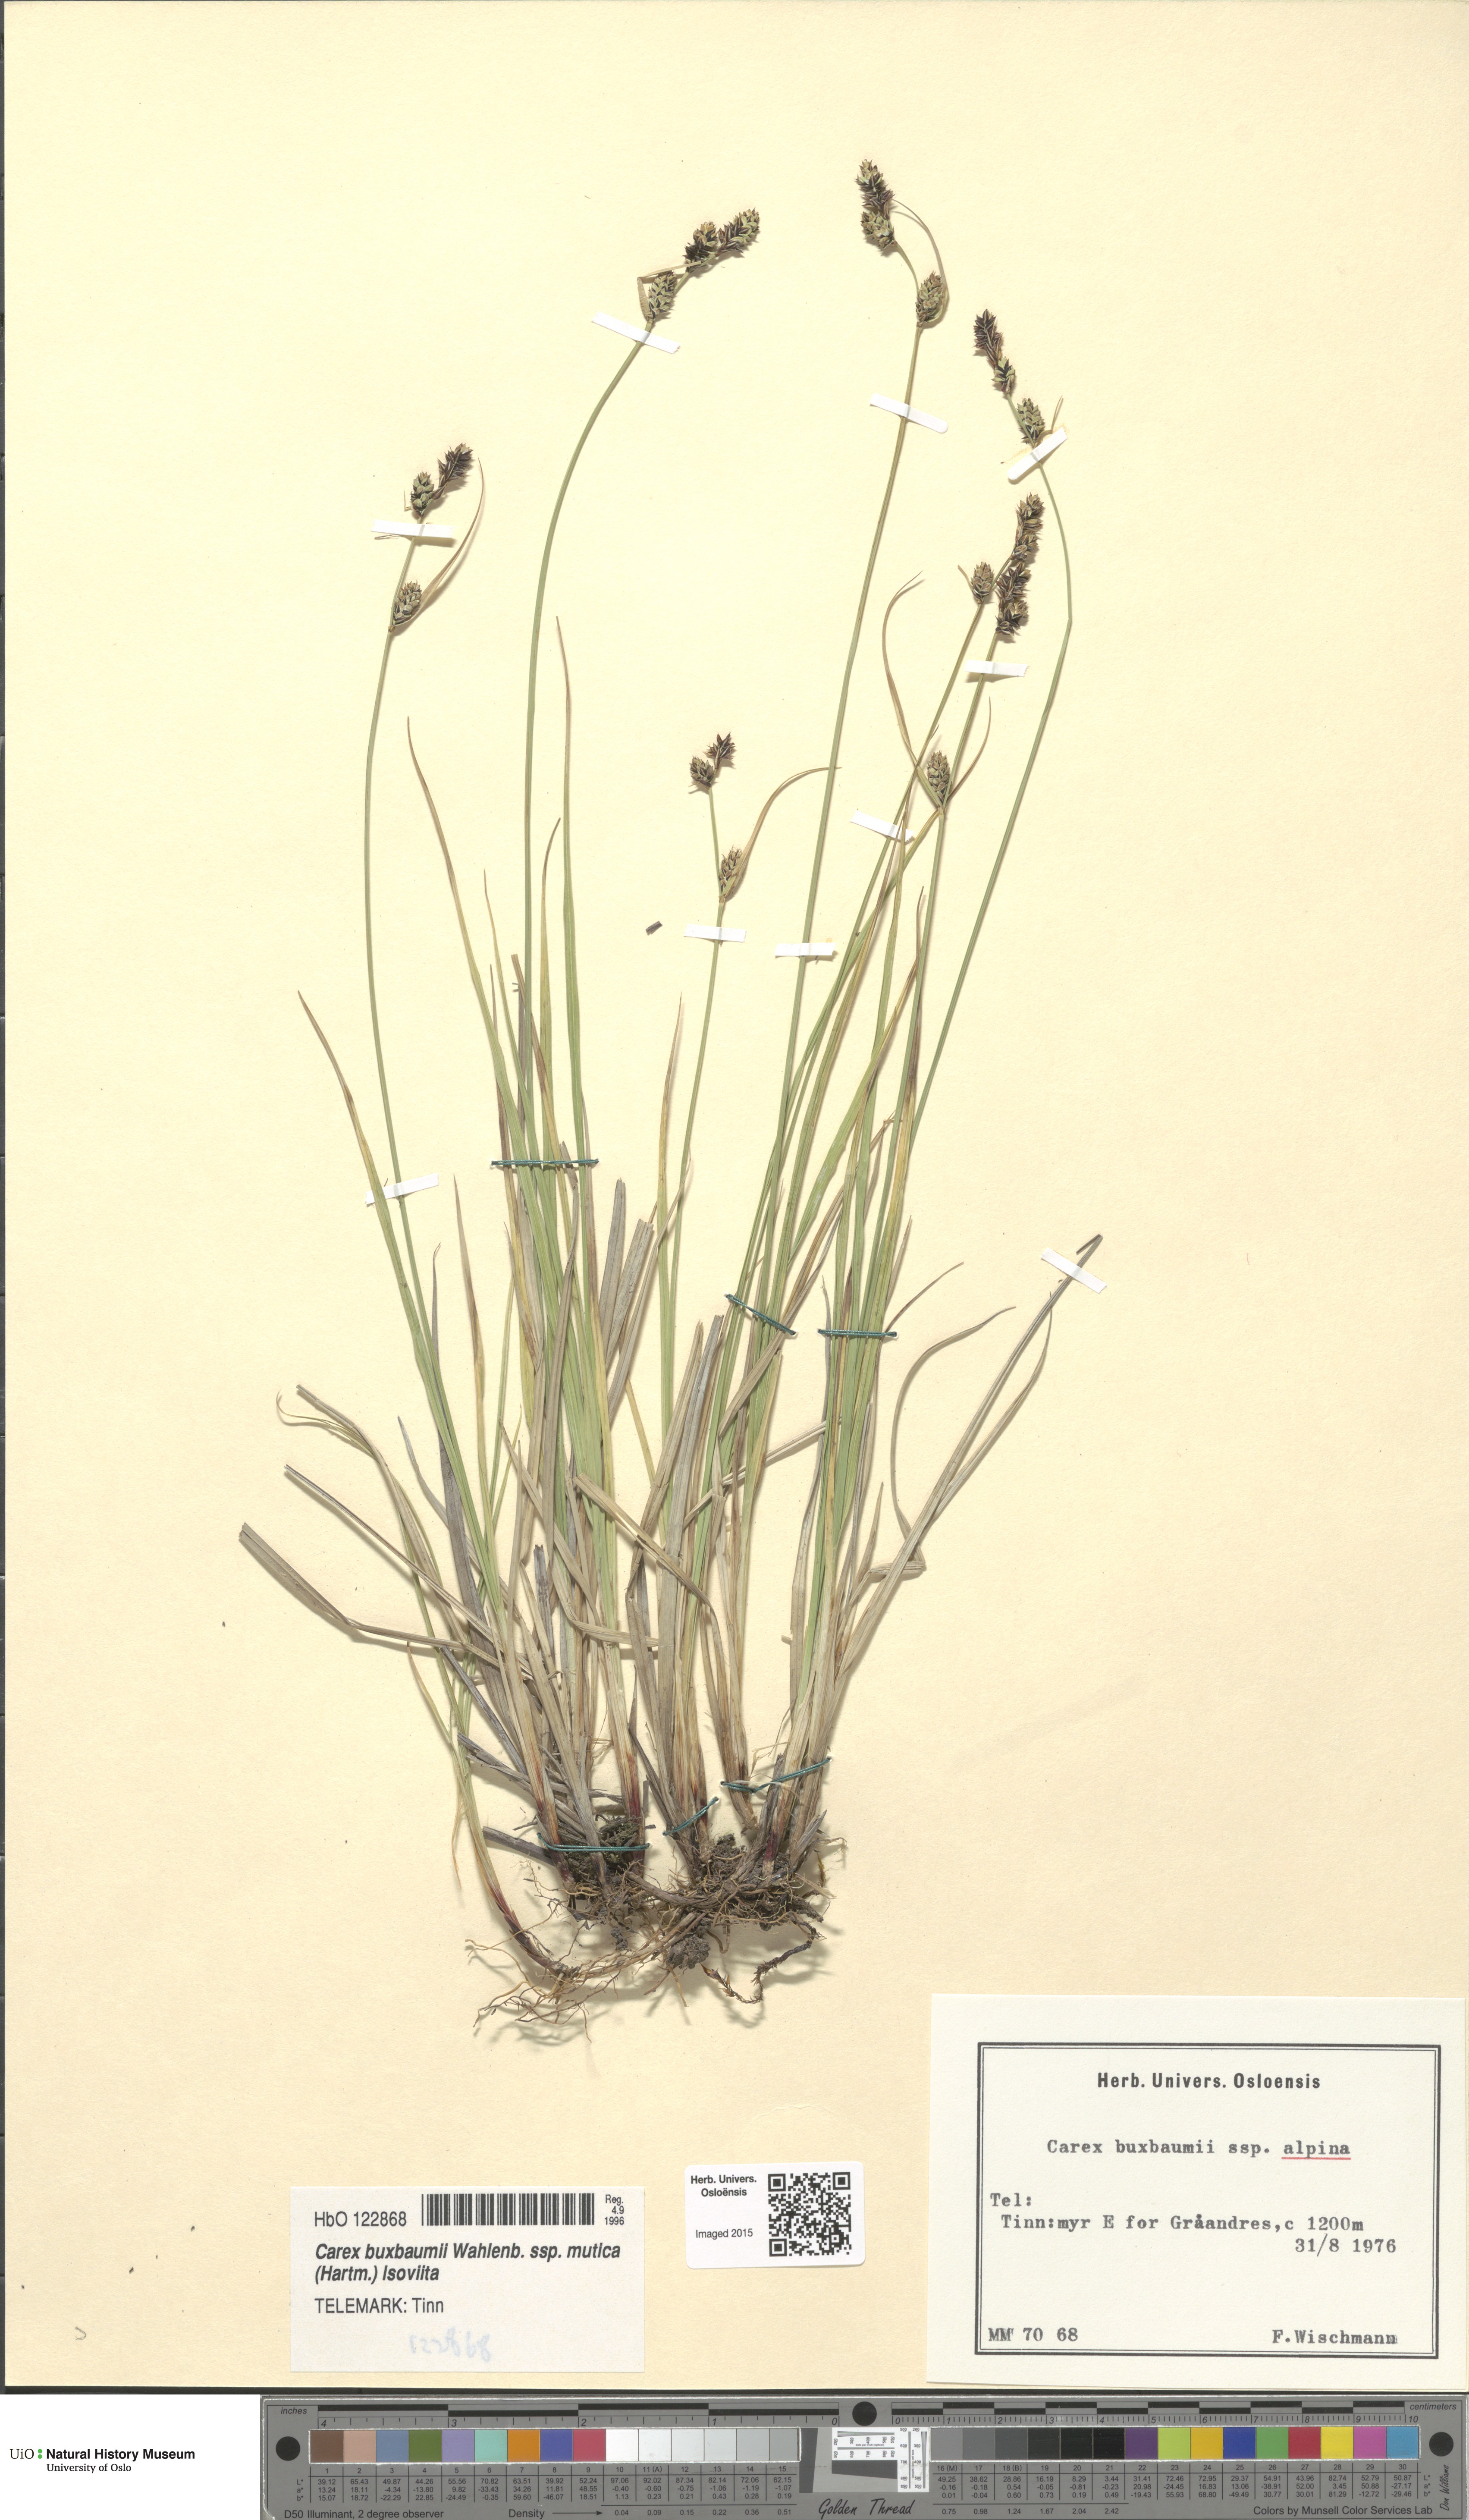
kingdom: Plantae
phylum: Tracheophyta
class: Liliopsida
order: Poales
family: Cyperaceae
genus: Carex
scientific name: Carex adelostoma
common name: Circumpolar sedge
